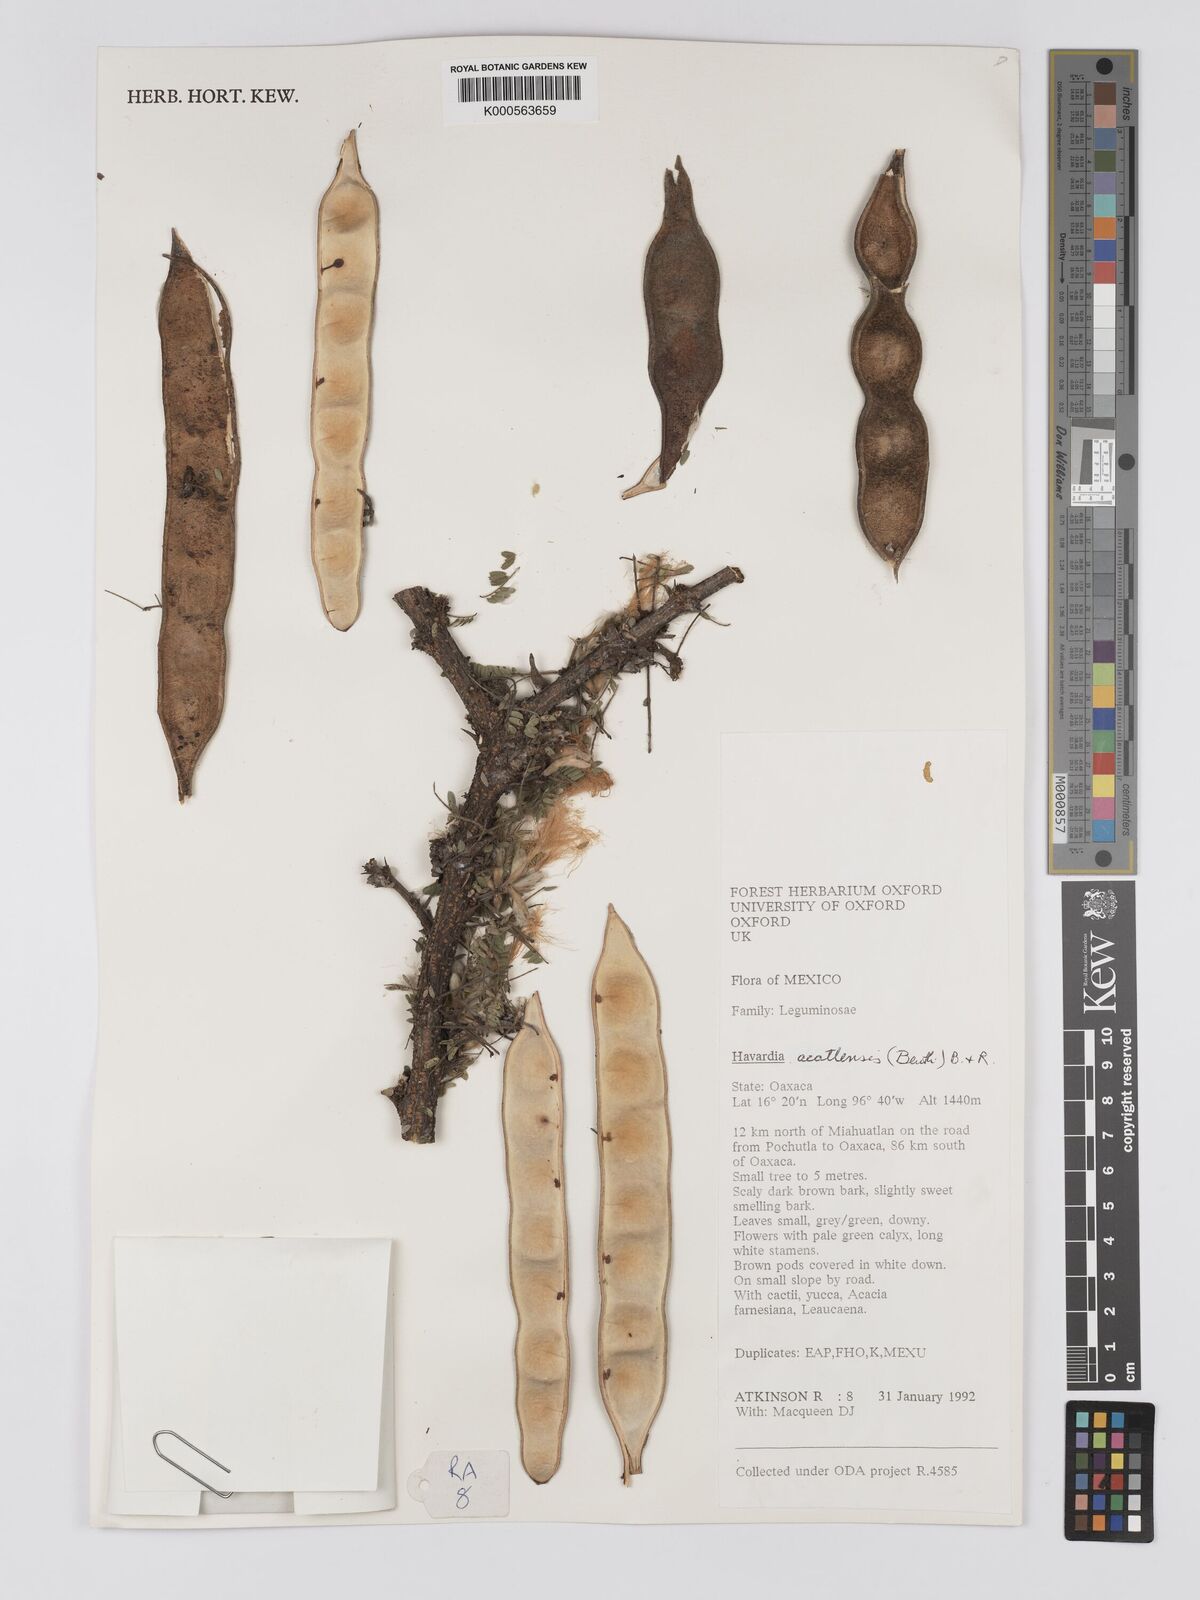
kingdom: Plantae
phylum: Tracheophyta
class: Magnoliopsida
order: Fabales
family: Fabaceae
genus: Havardia
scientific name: Havardia acatlensis
